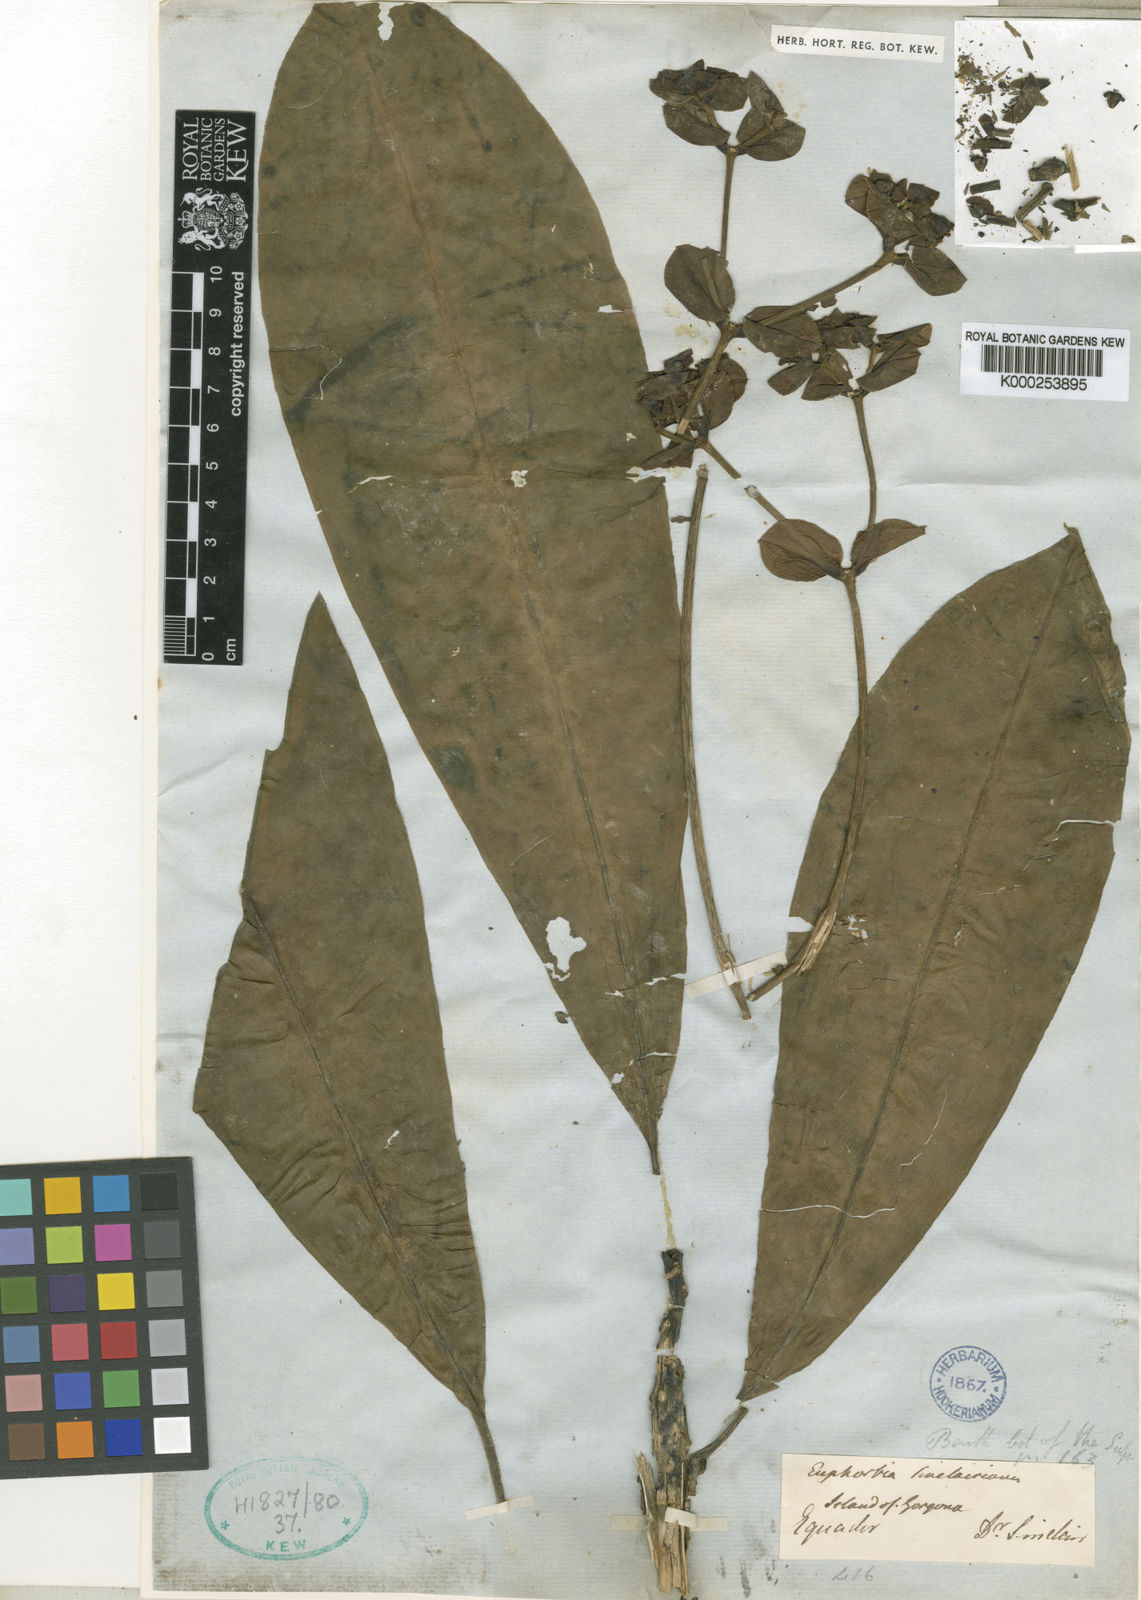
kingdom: Plantae
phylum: Tracheophyta
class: Magnoliopsida
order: Malpighiales
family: Euphorbiaceae
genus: Euphorbia
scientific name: Euphorbia sinclairiana
